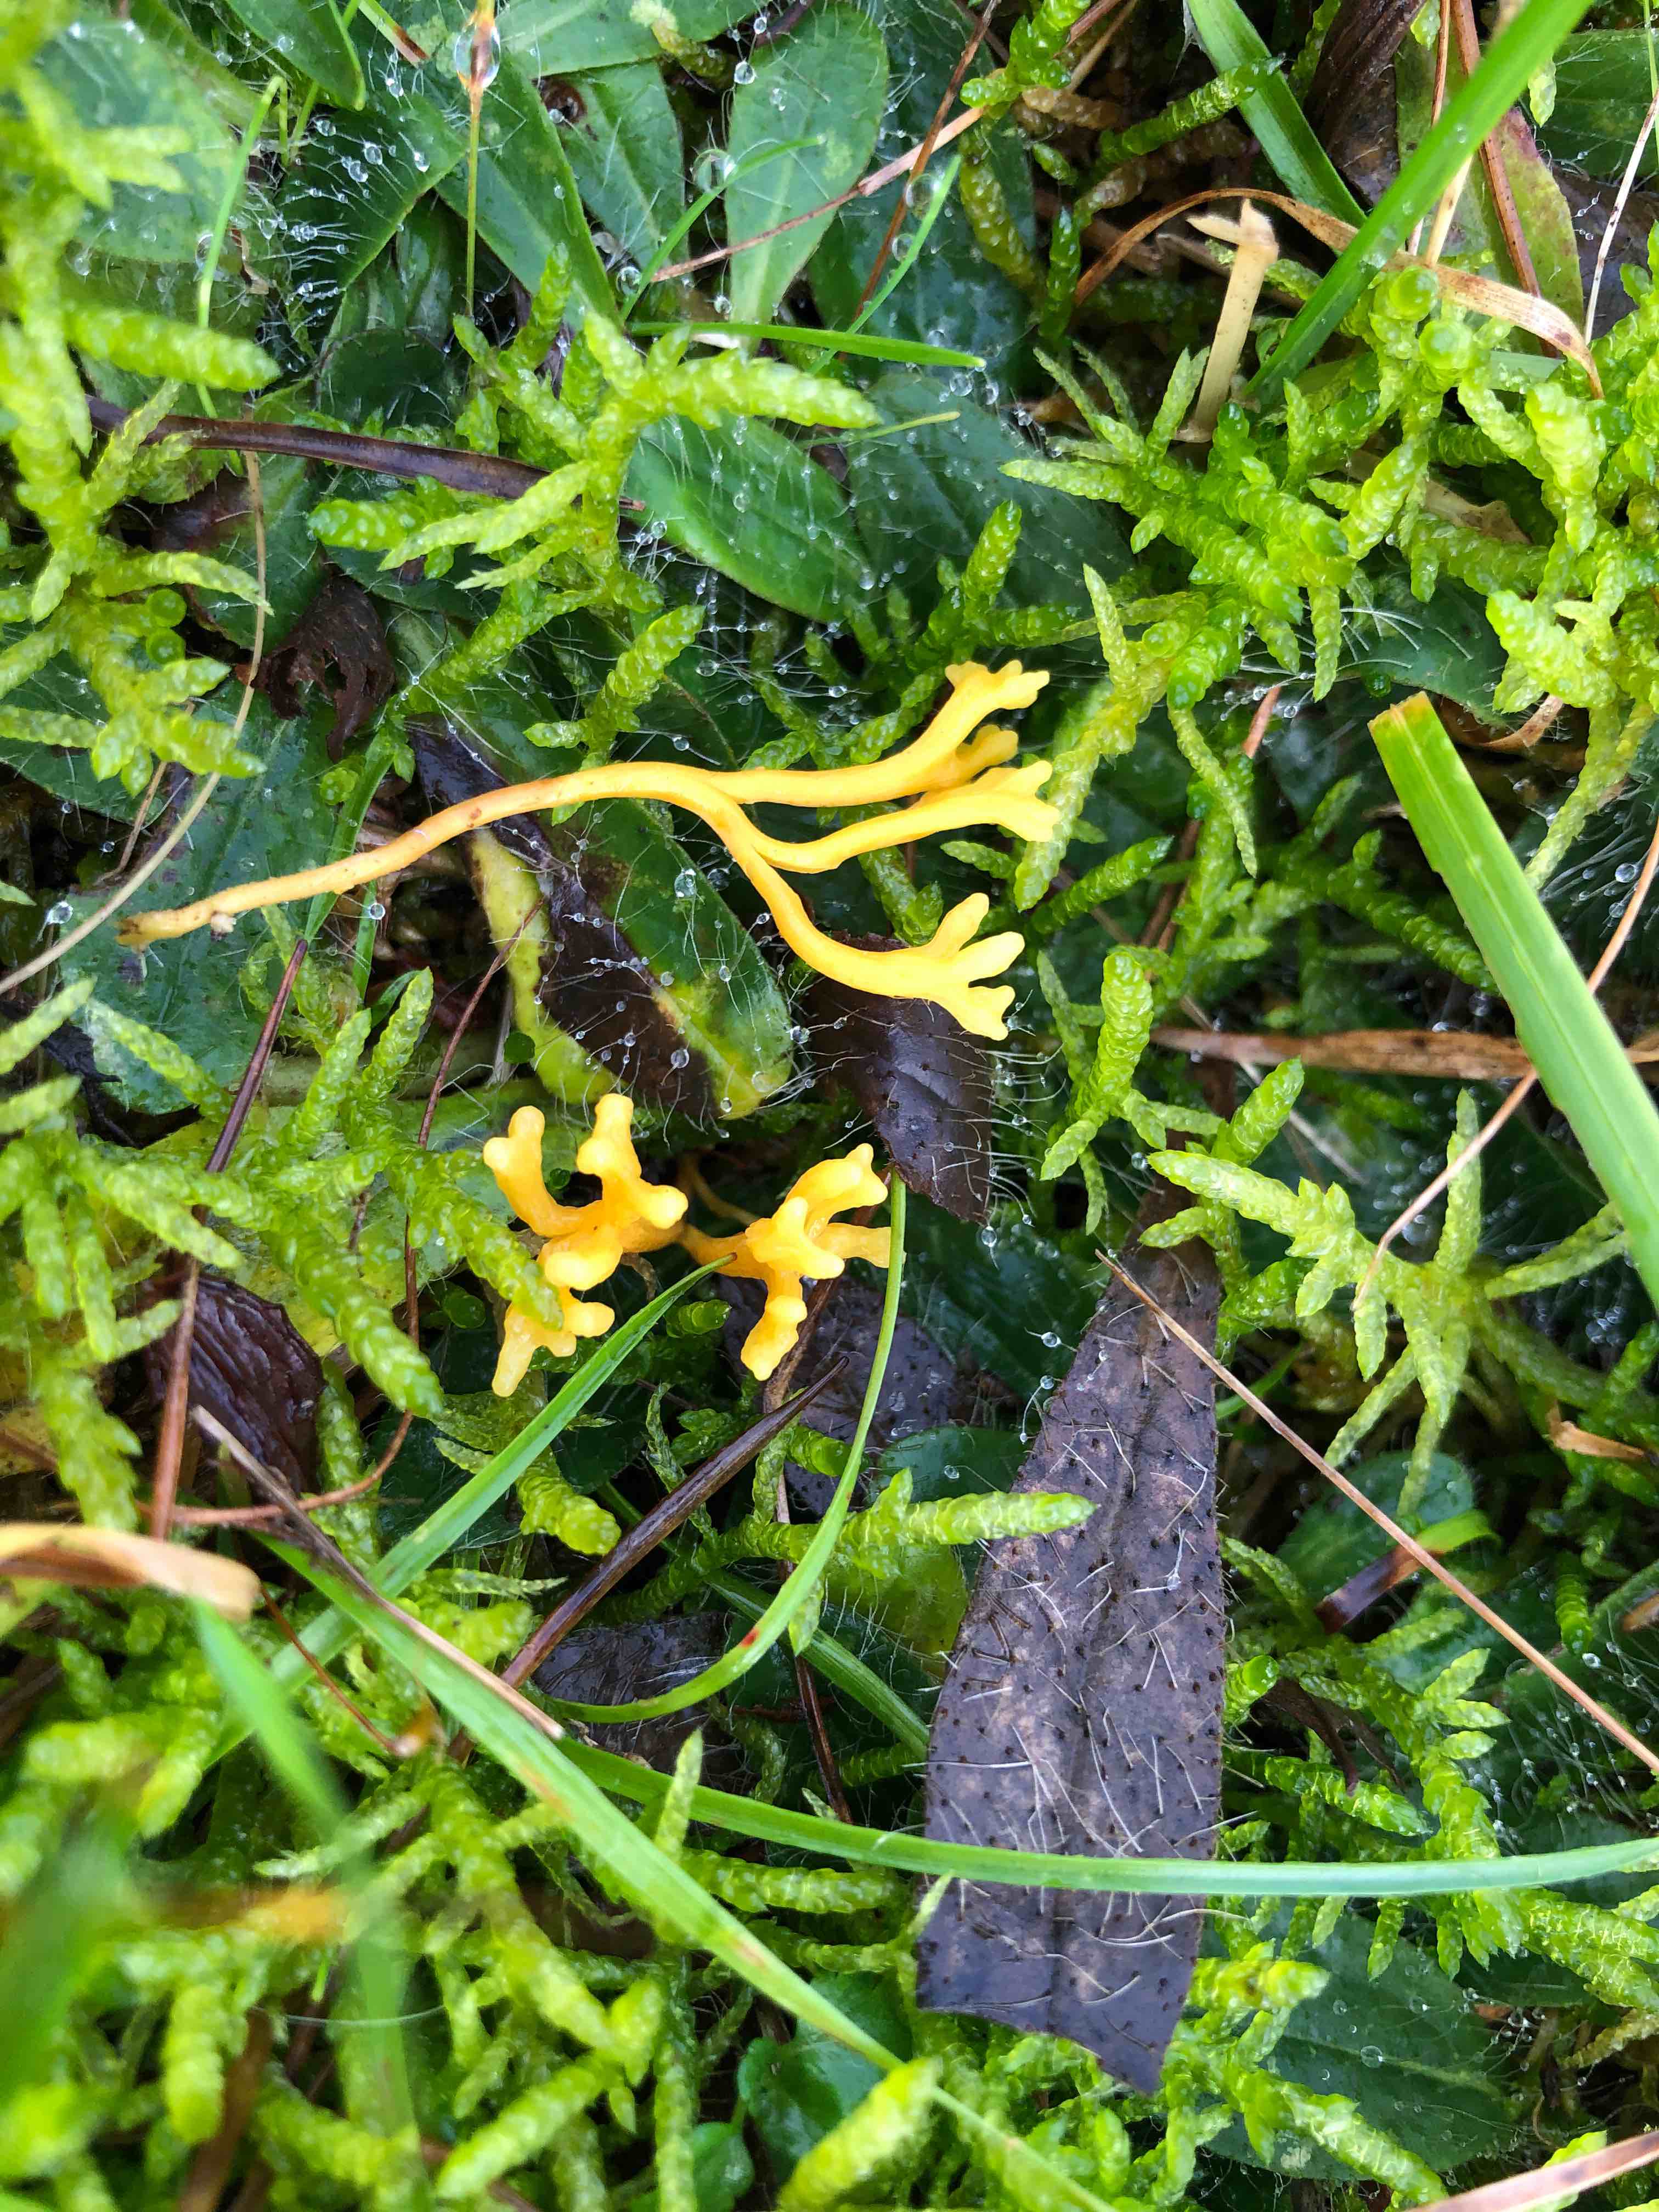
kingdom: Fungi
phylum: Basidiomycota
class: Agaricomycetes
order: Agaricales
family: Clavariaceae
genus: Clavulinopsis
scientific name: Clavulinopsis corniculata
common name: eng-køllesvamp
